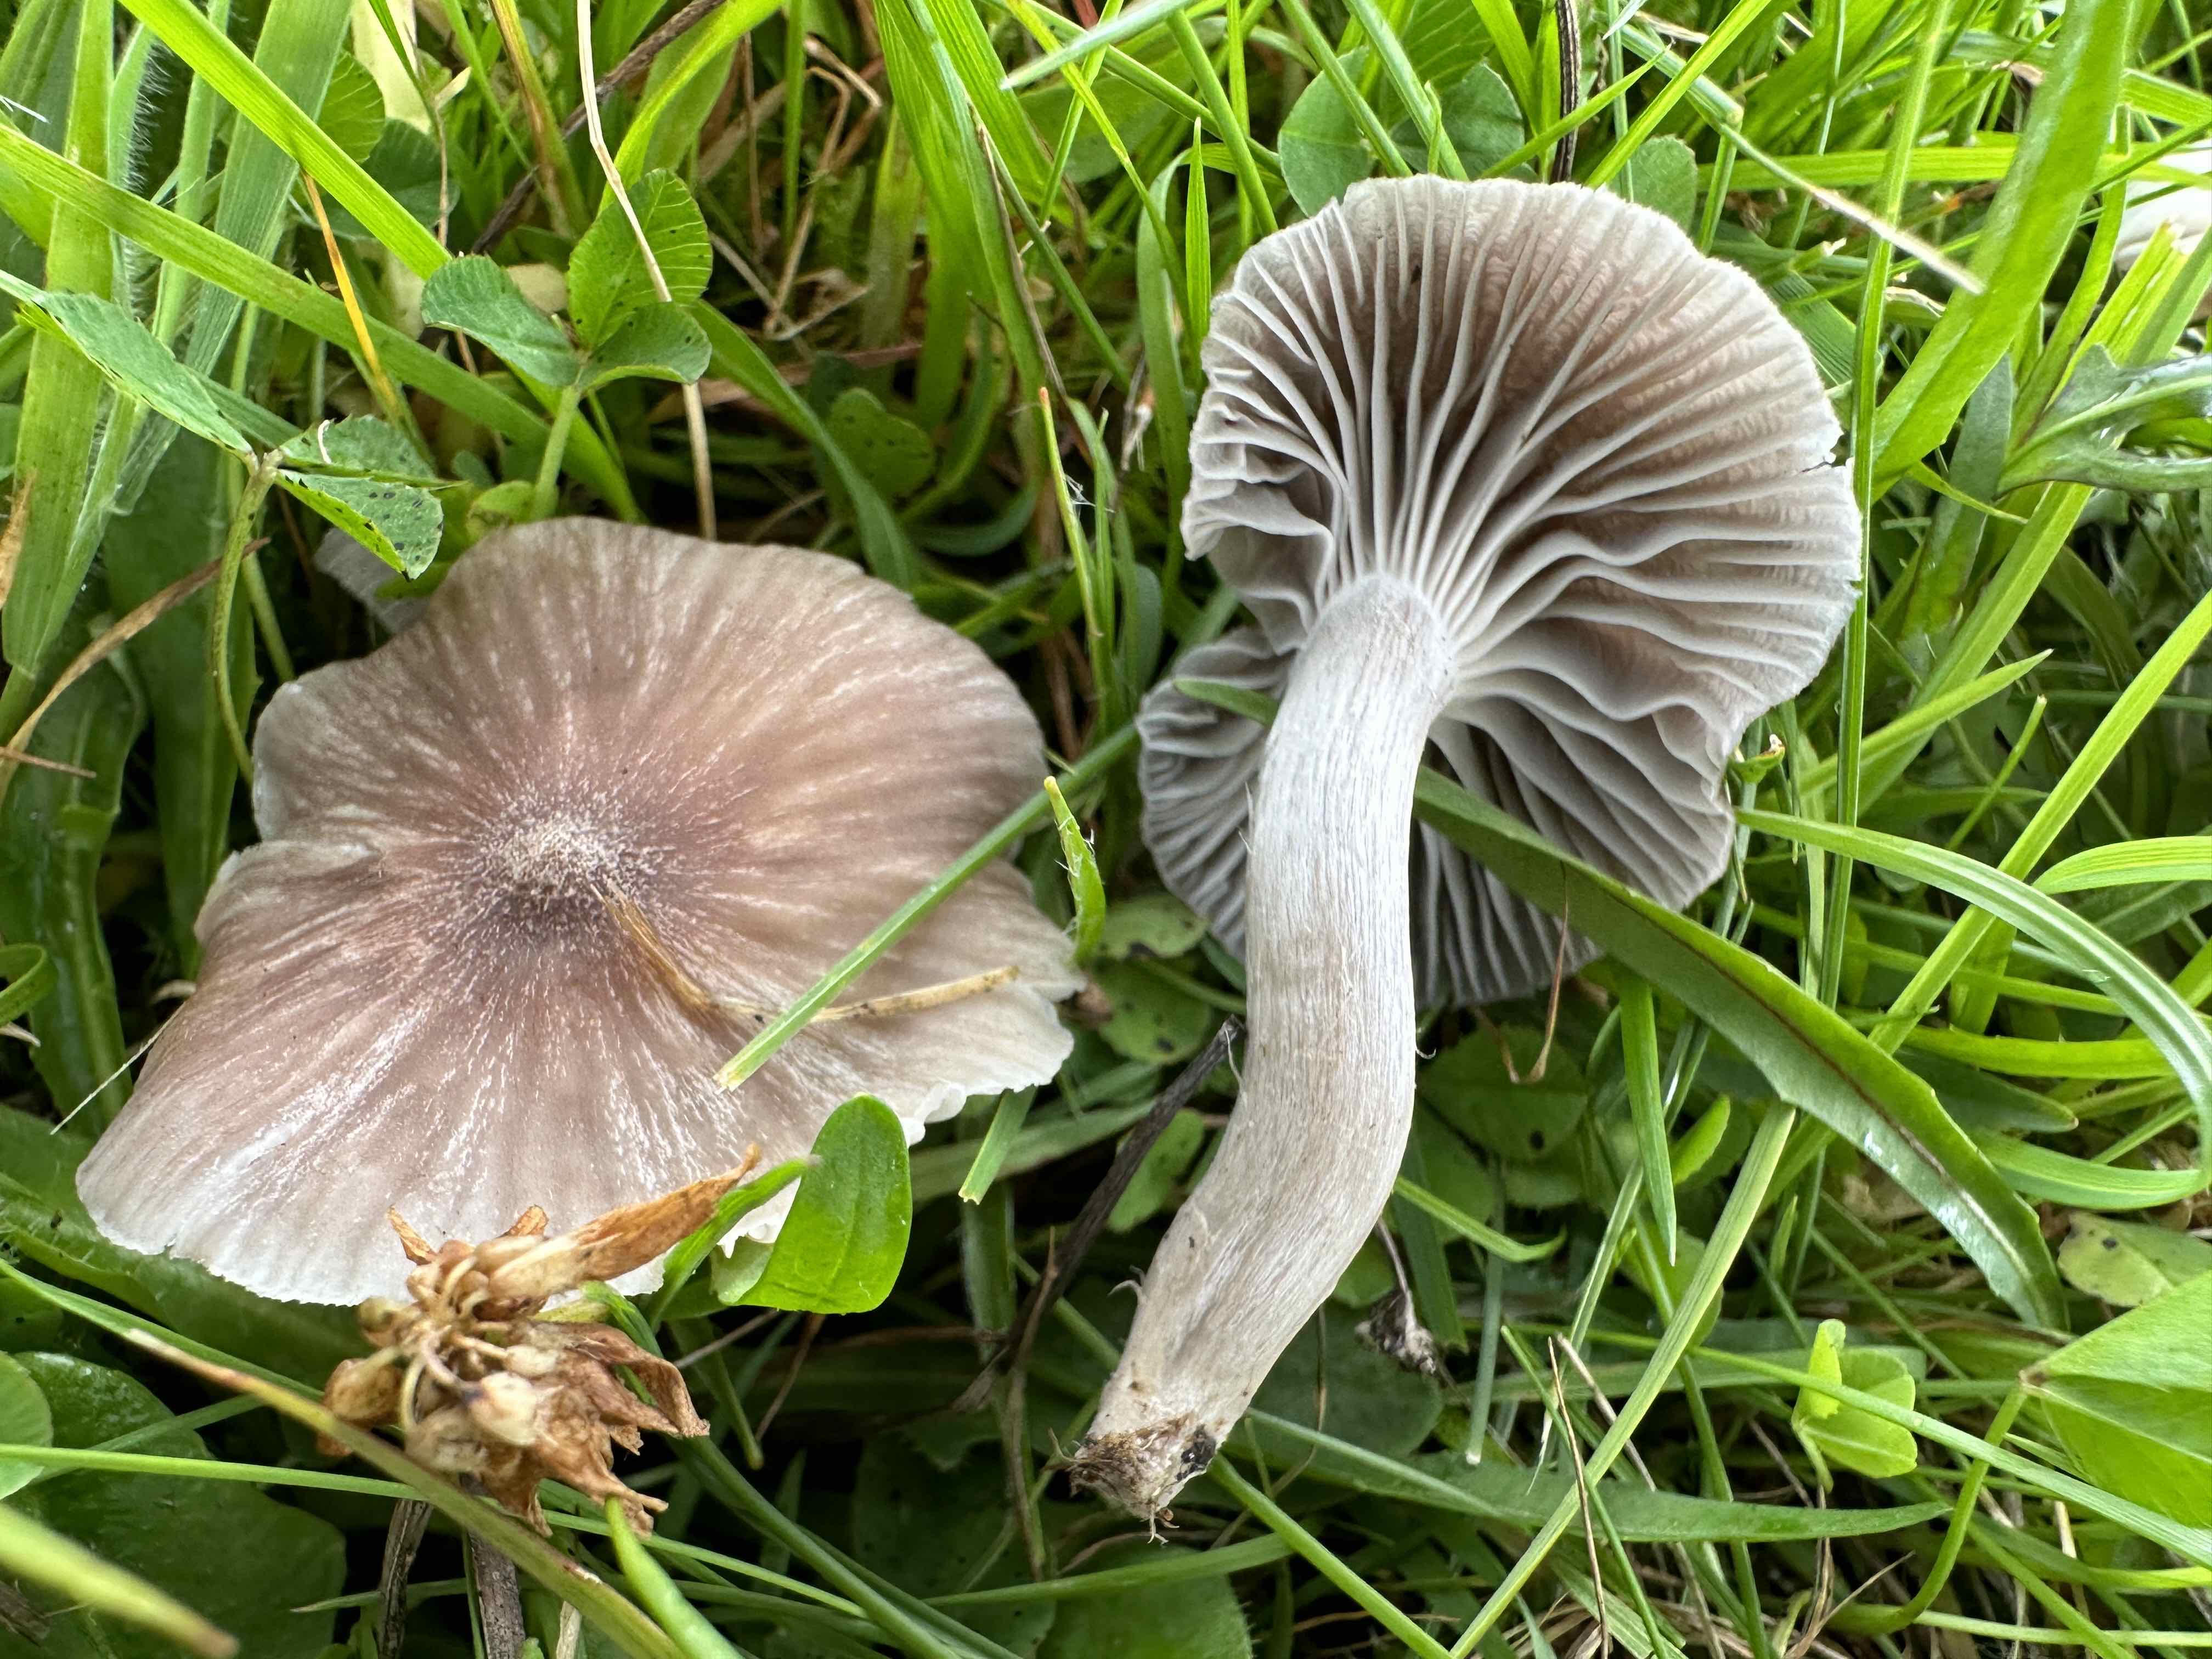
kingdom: Fungi
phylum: Basidiomycota
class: Agaricomycetes
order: Agaricales
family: Hygrophoraceae
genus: Cuphophyllus
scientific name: Cuphophyllus
